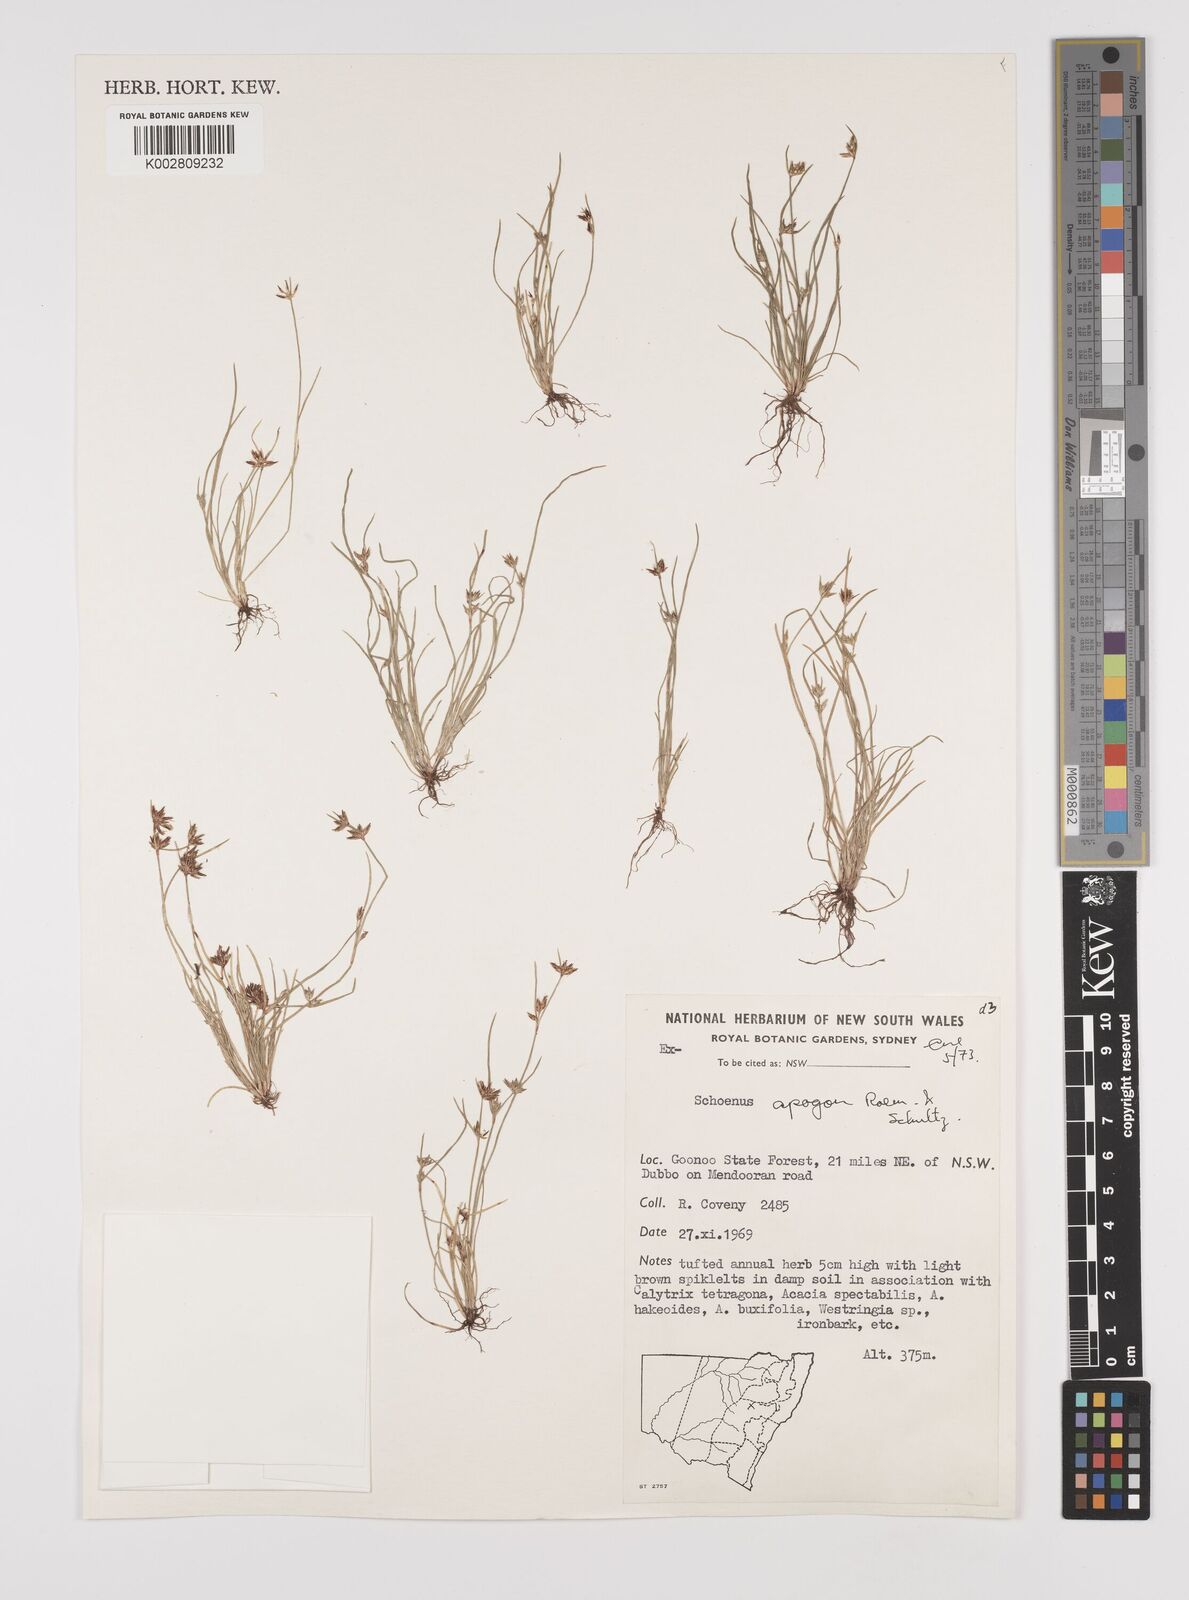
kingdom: Plantae
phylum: Tracheophyta
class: Liliopsida
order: Poales
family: Cyperaceae
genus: Schoenus
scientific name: Schoenus apogon
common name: Smooth bogrush
